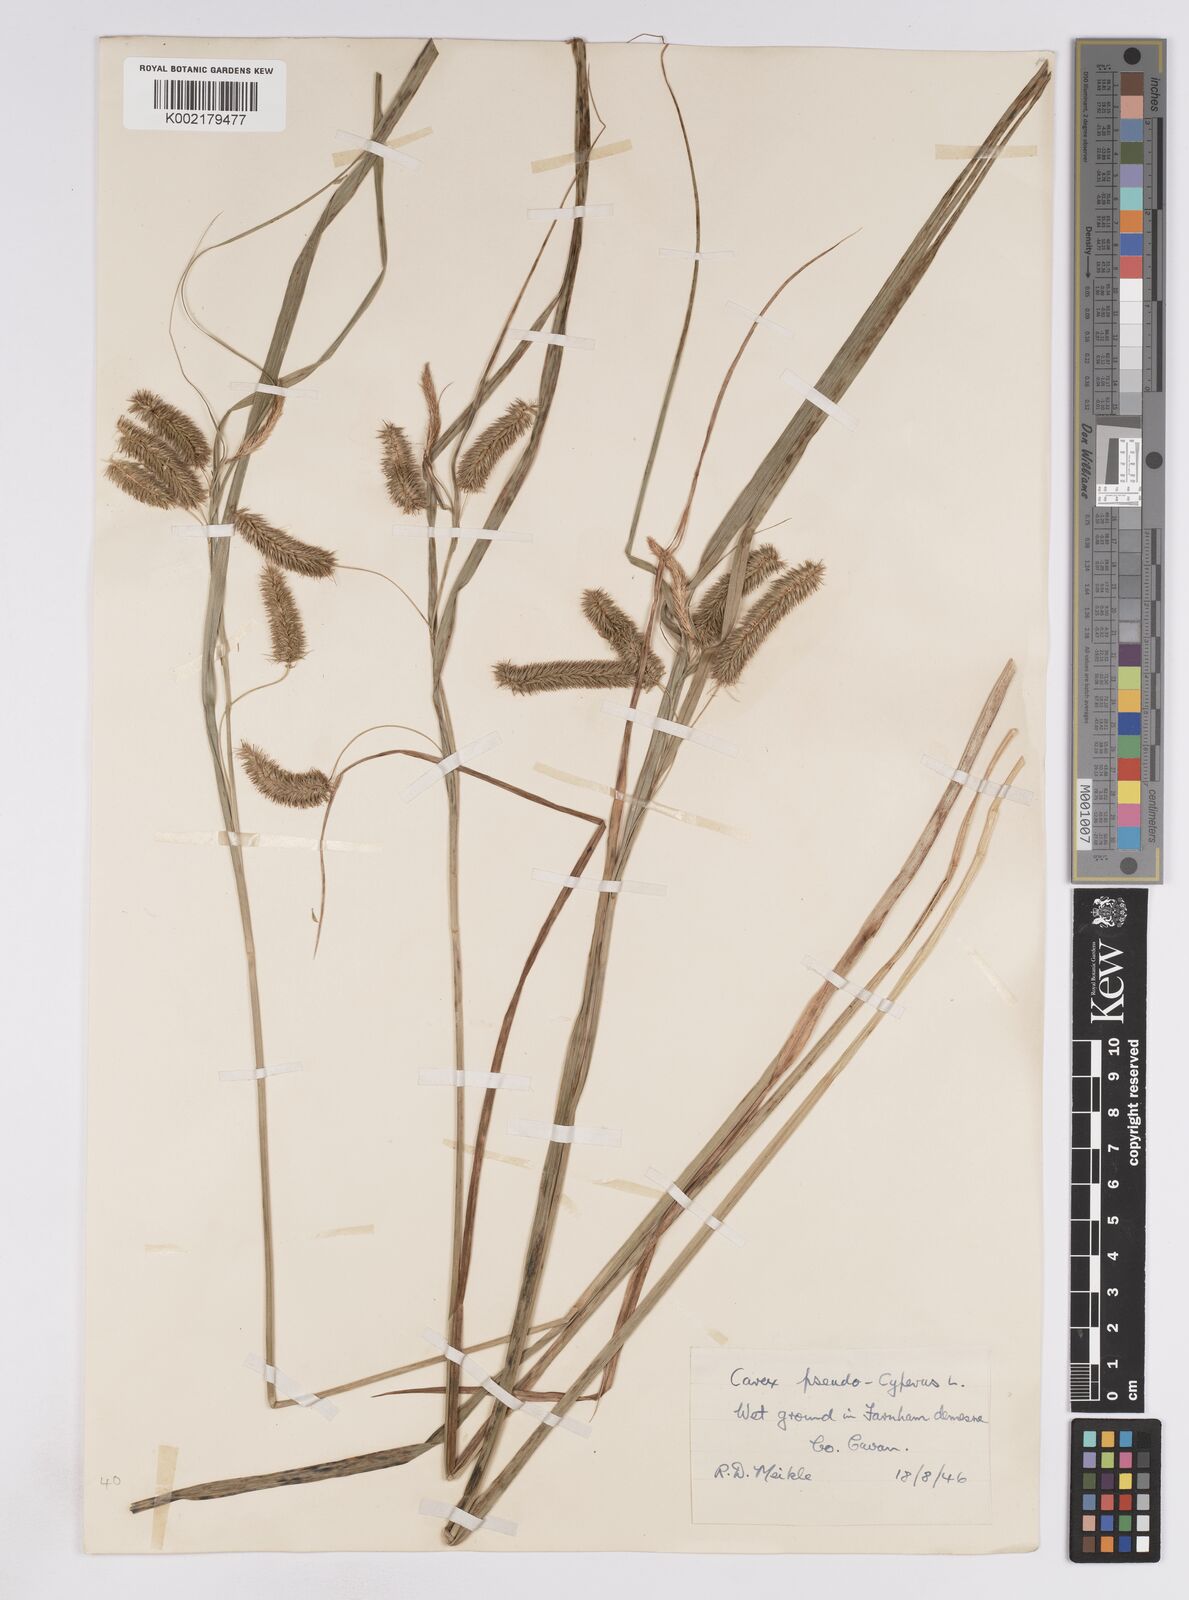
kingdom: Plantae
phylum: Tracheophyta
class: Liliopsida
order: Poales
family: Cyperaceae
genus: Carex
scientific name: Carex pseudocyperus
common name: Cyperus sedge
